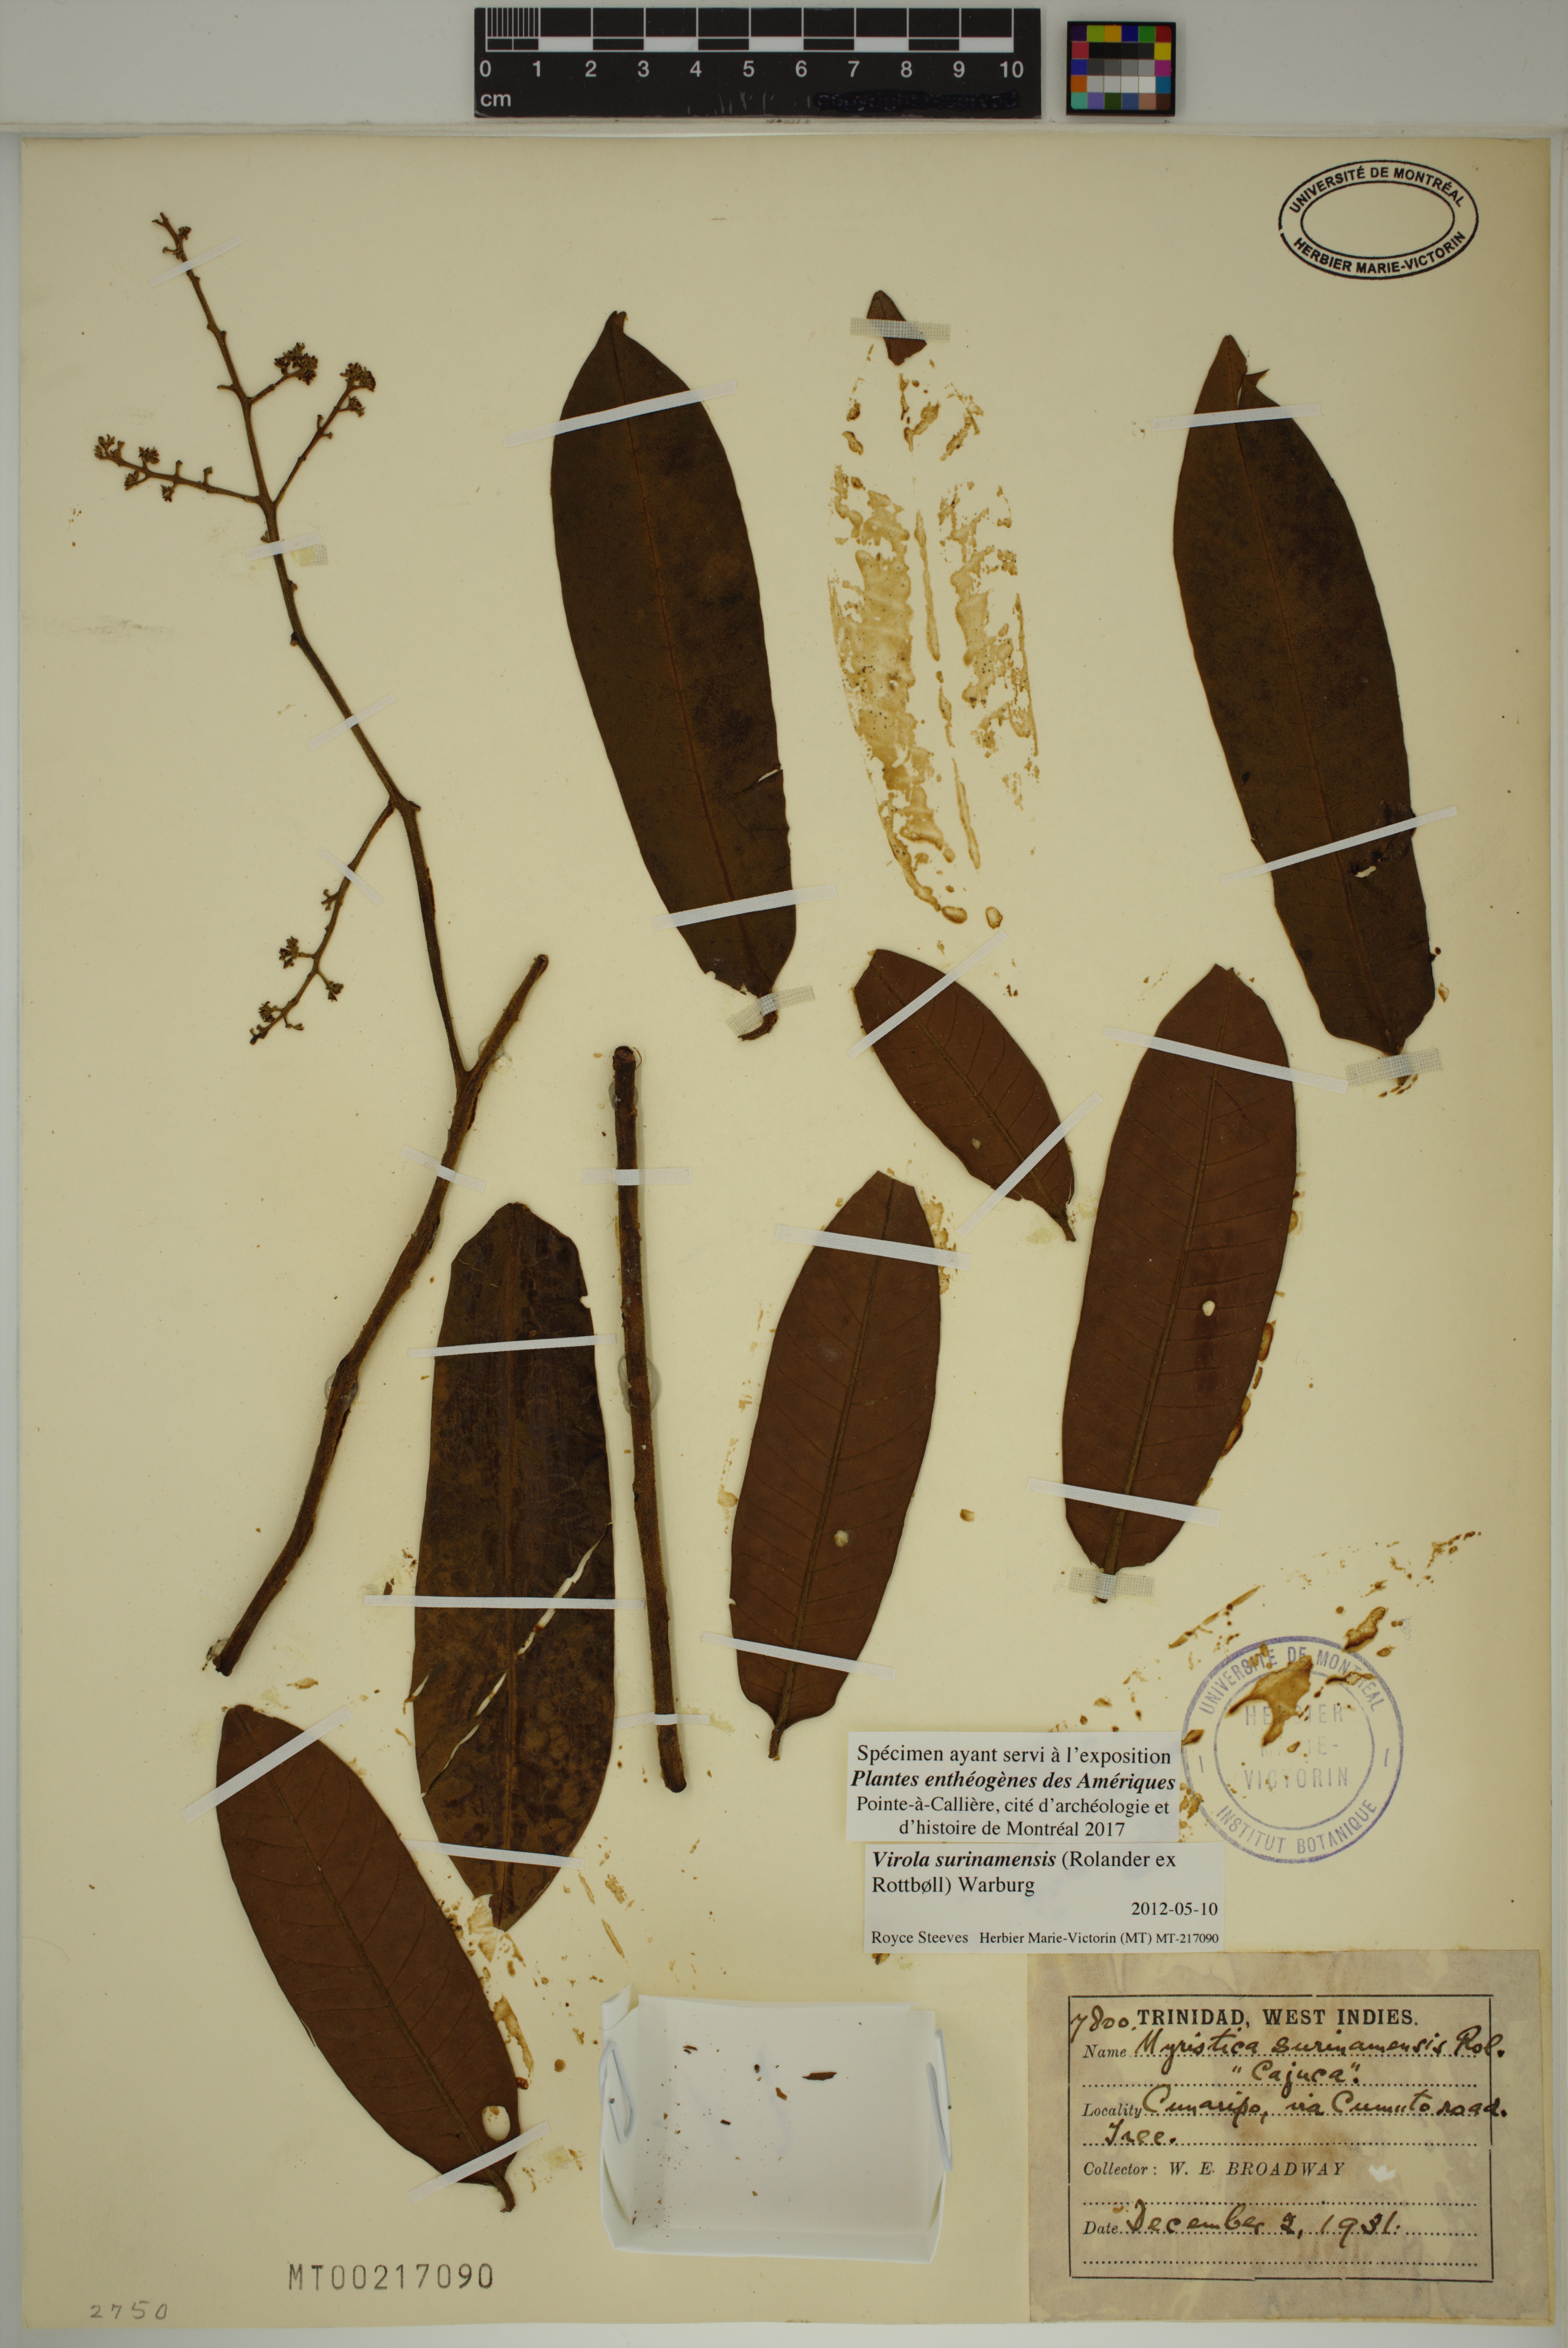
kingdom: Plantae
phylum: Tracheophyta
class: Magnoliopsida
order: Magnoliales
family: Myristicaceae
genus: Virola
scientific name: Virola surinamensis
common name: Baboonwood
